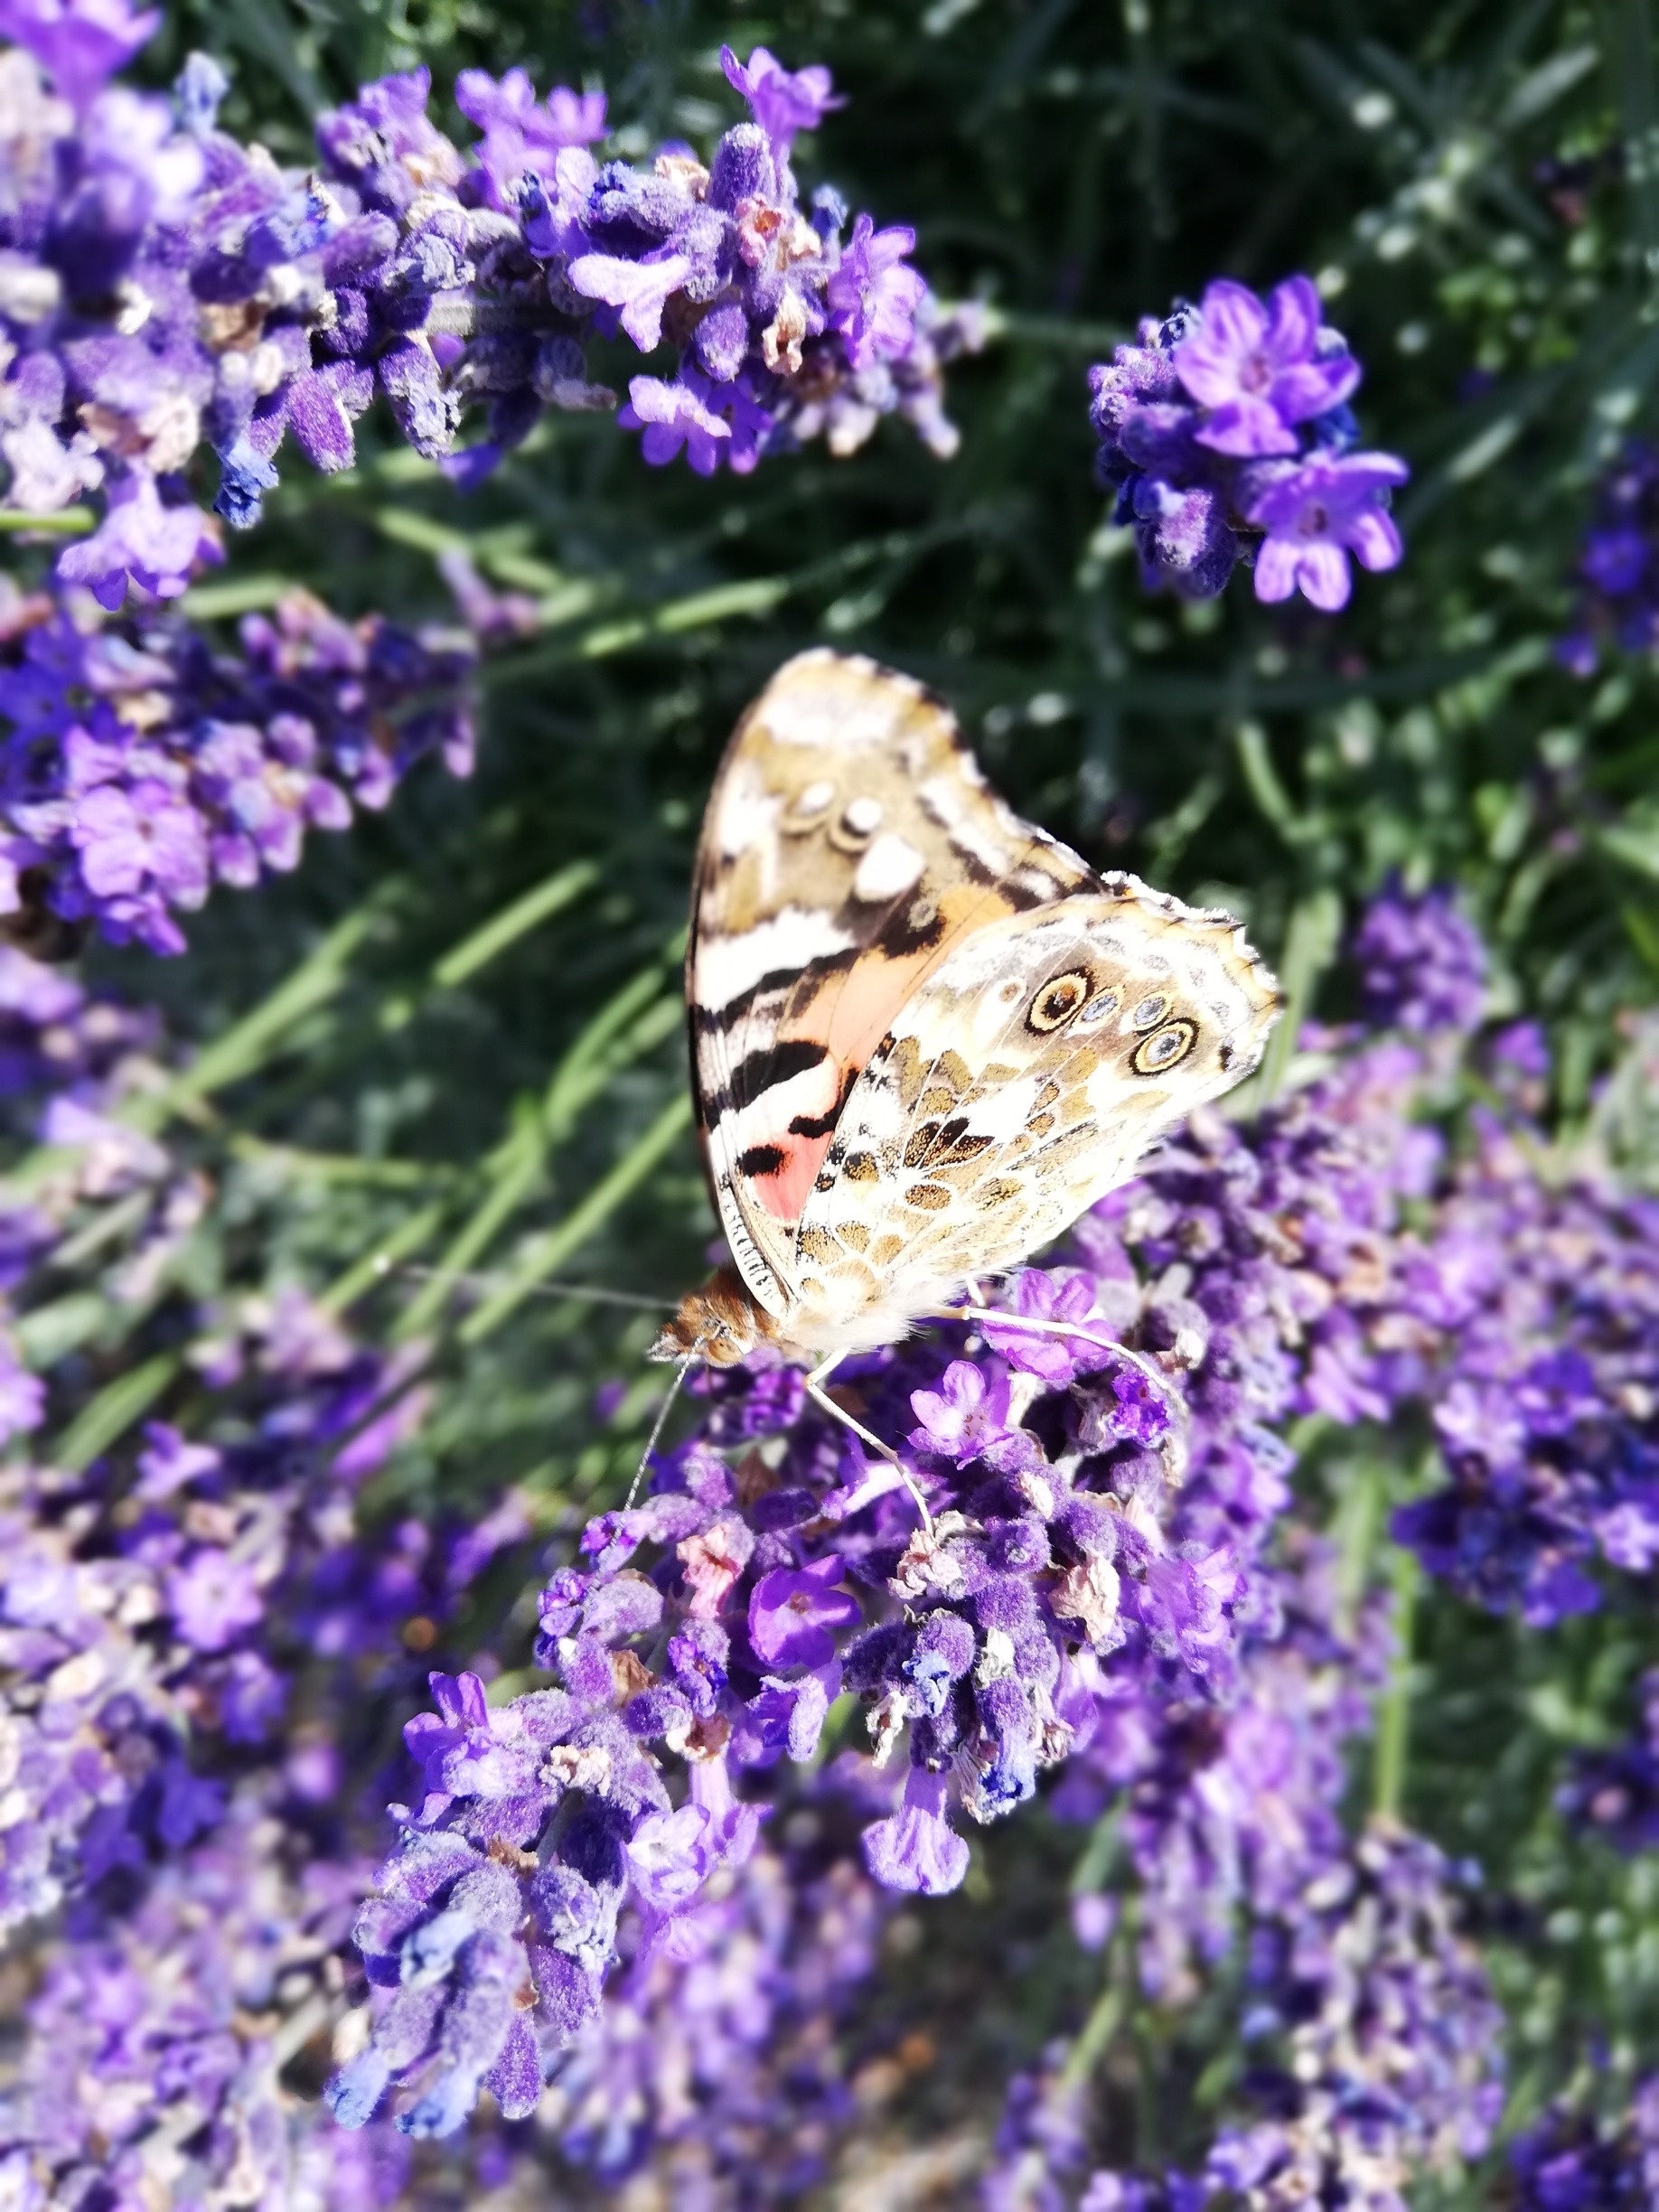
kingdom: Animalia
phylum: Arthropoda
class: Insecta
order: Lepidoptera
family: Nymphalidae
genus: Vanessa
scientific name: Vanessa cardui
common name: Tidselsommerfugl
